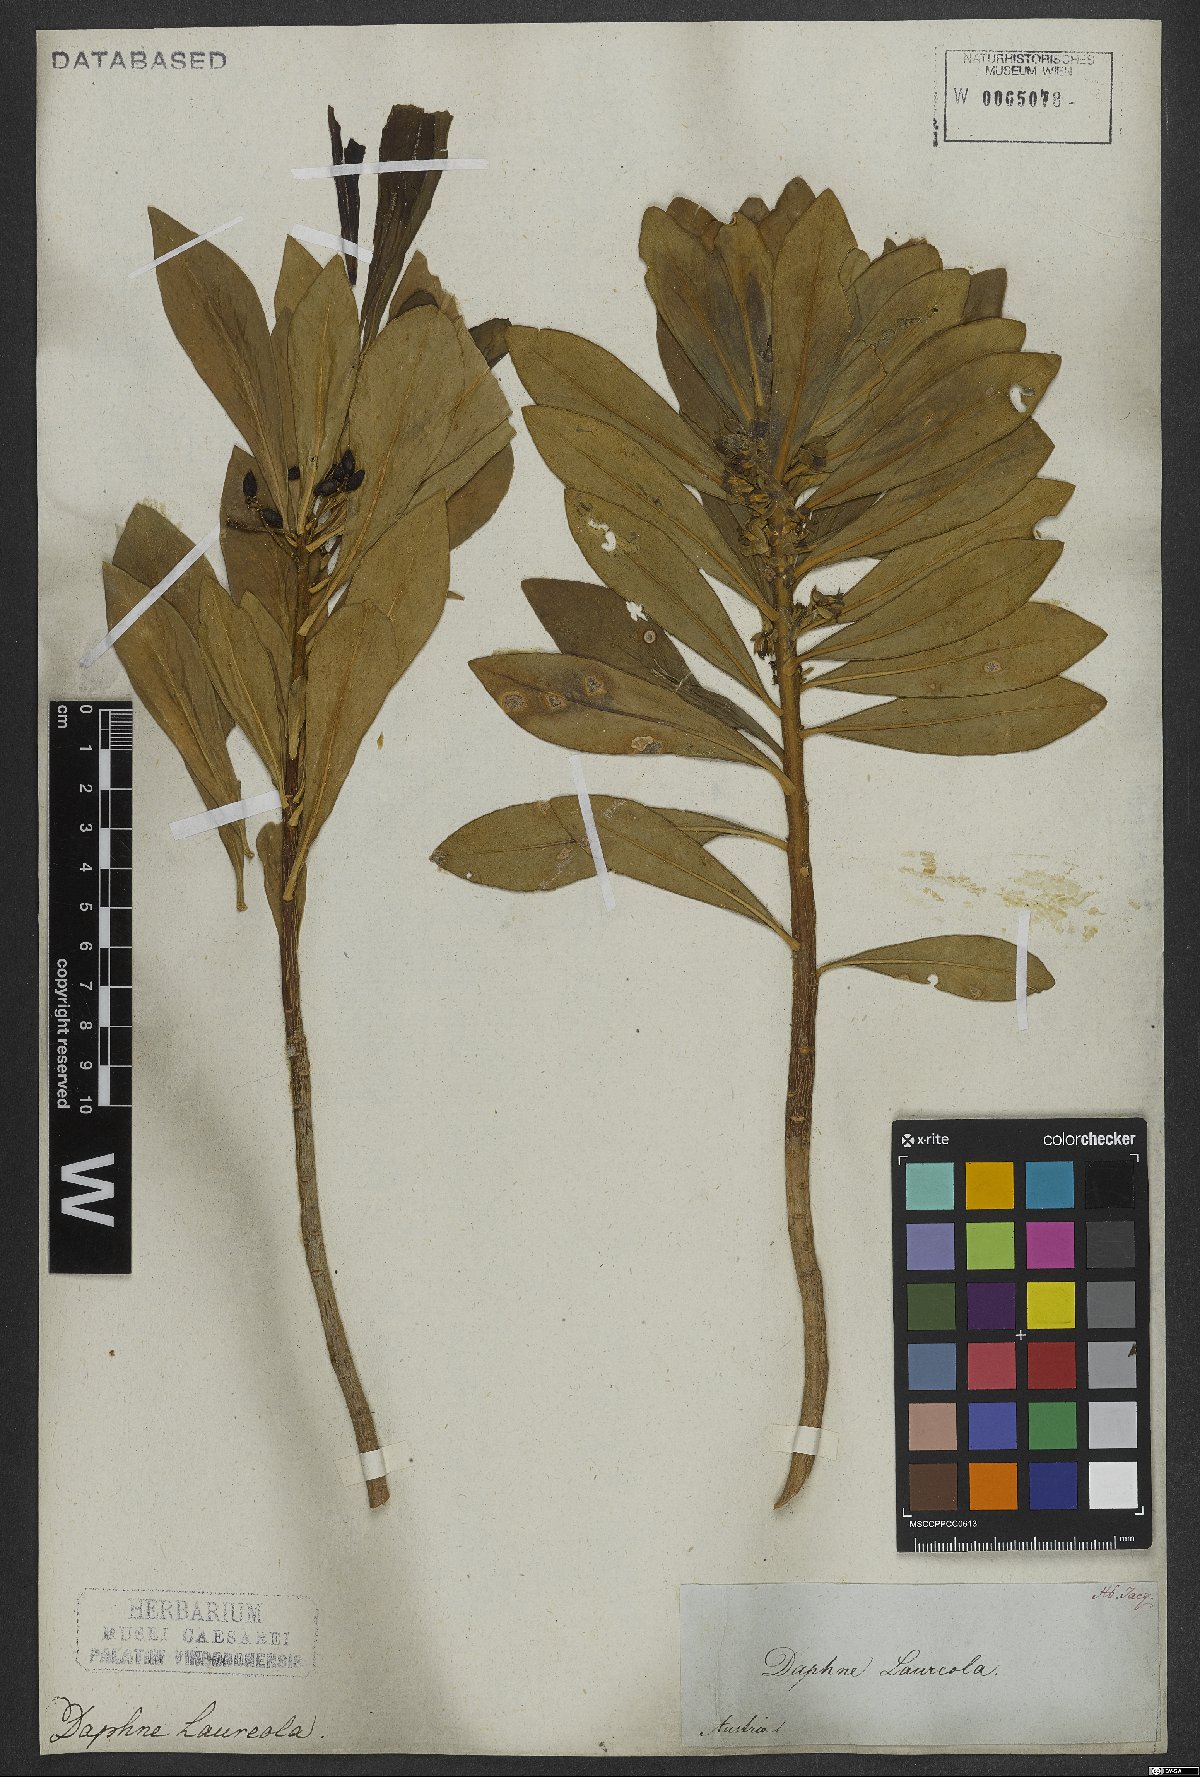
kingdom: Plantae
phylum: Tracheophyta
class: Magnoliopsida
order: Malvales
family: Thymelaeaceae
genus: Daphne
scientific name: Daphne laureola
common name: Spurge-laurel
